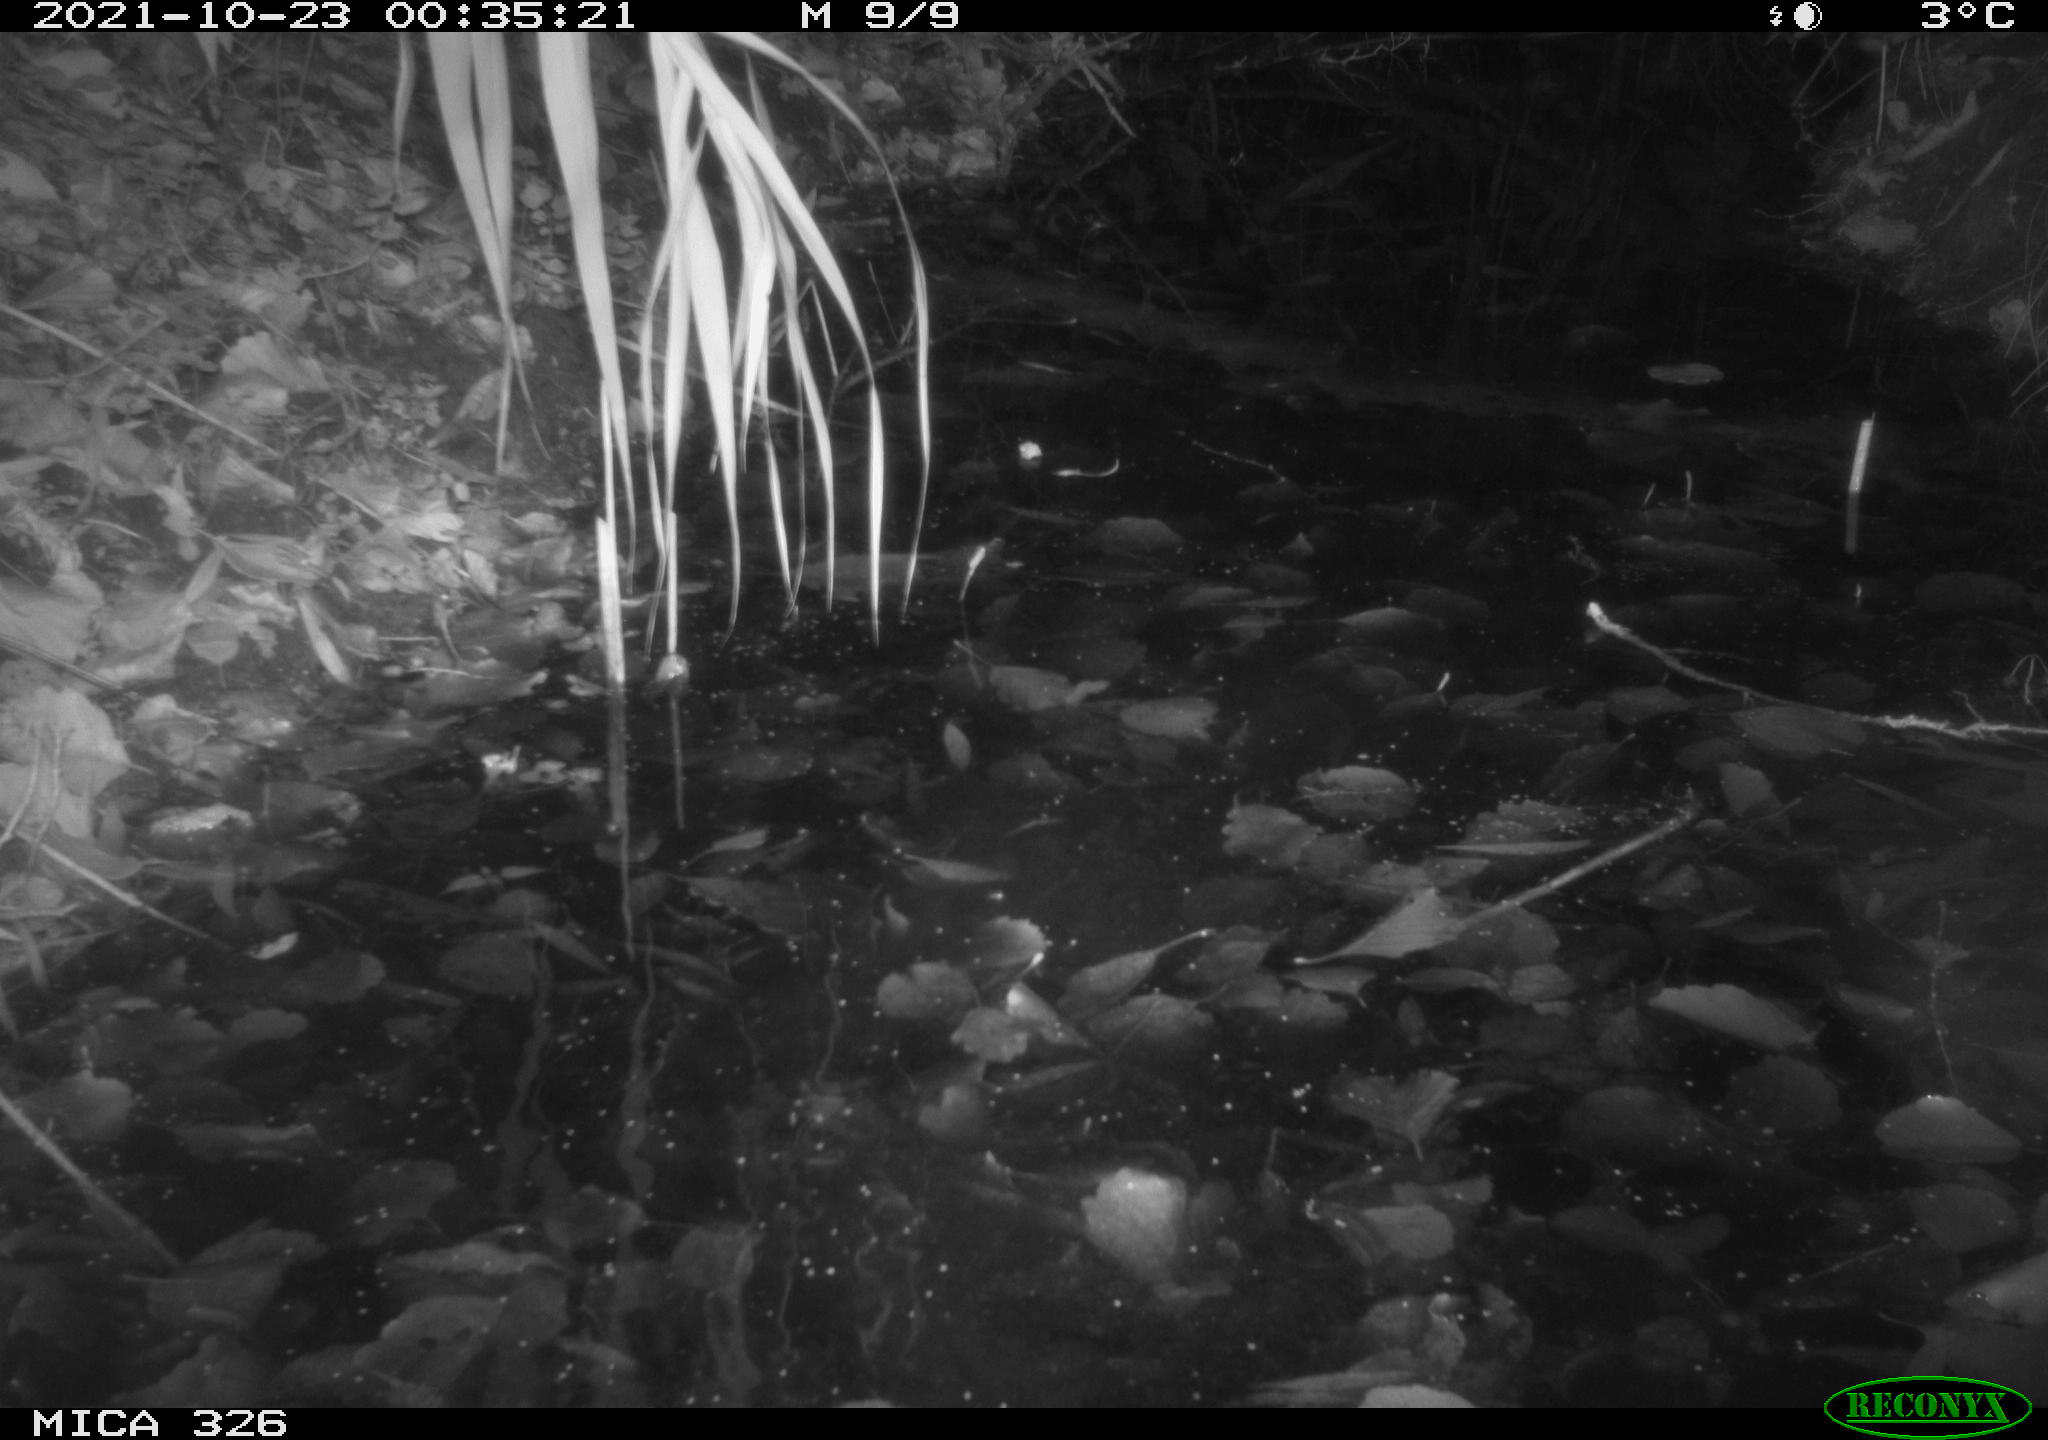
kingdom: Animalia
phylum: Chordata
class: Mammalia
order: Rodentia
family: Myocastoridae
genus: Myocastor
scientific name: Myocastor coypus
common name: Coypu
